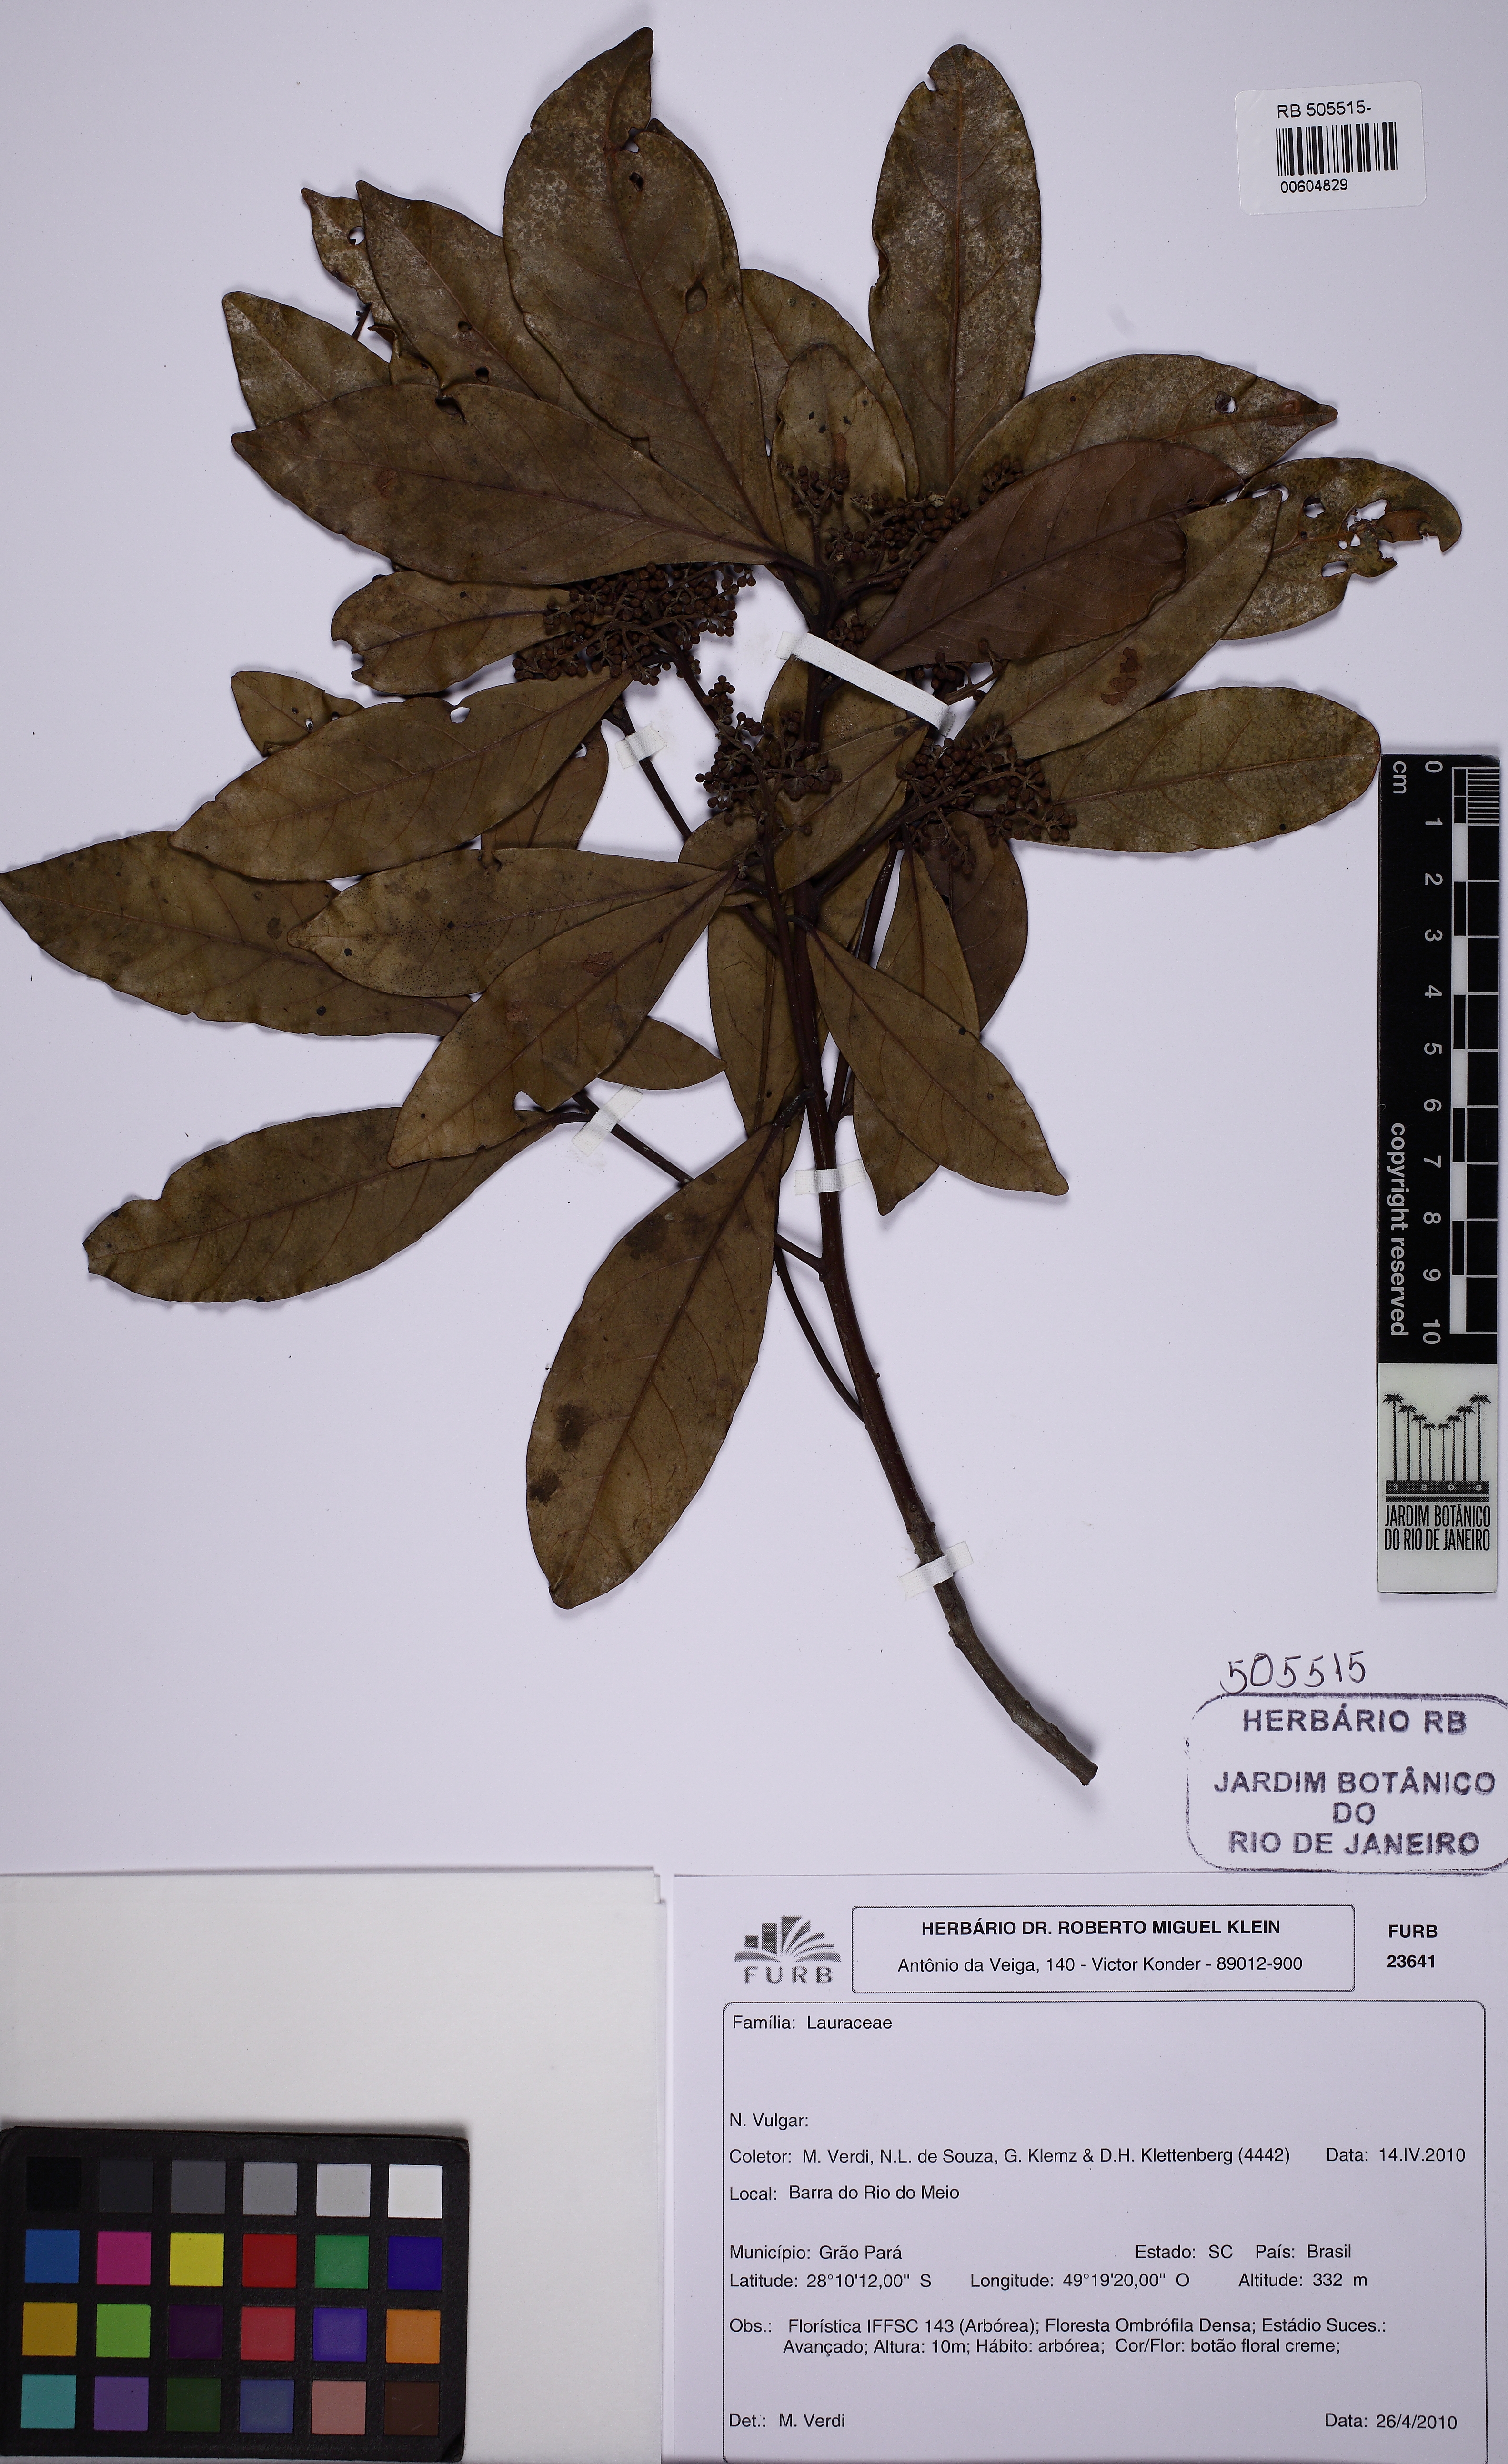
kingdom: Plantae
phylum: Tracheophyta
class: Magnoliopsida
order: Laurales
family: Lauraceae
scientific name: Lauraceae
